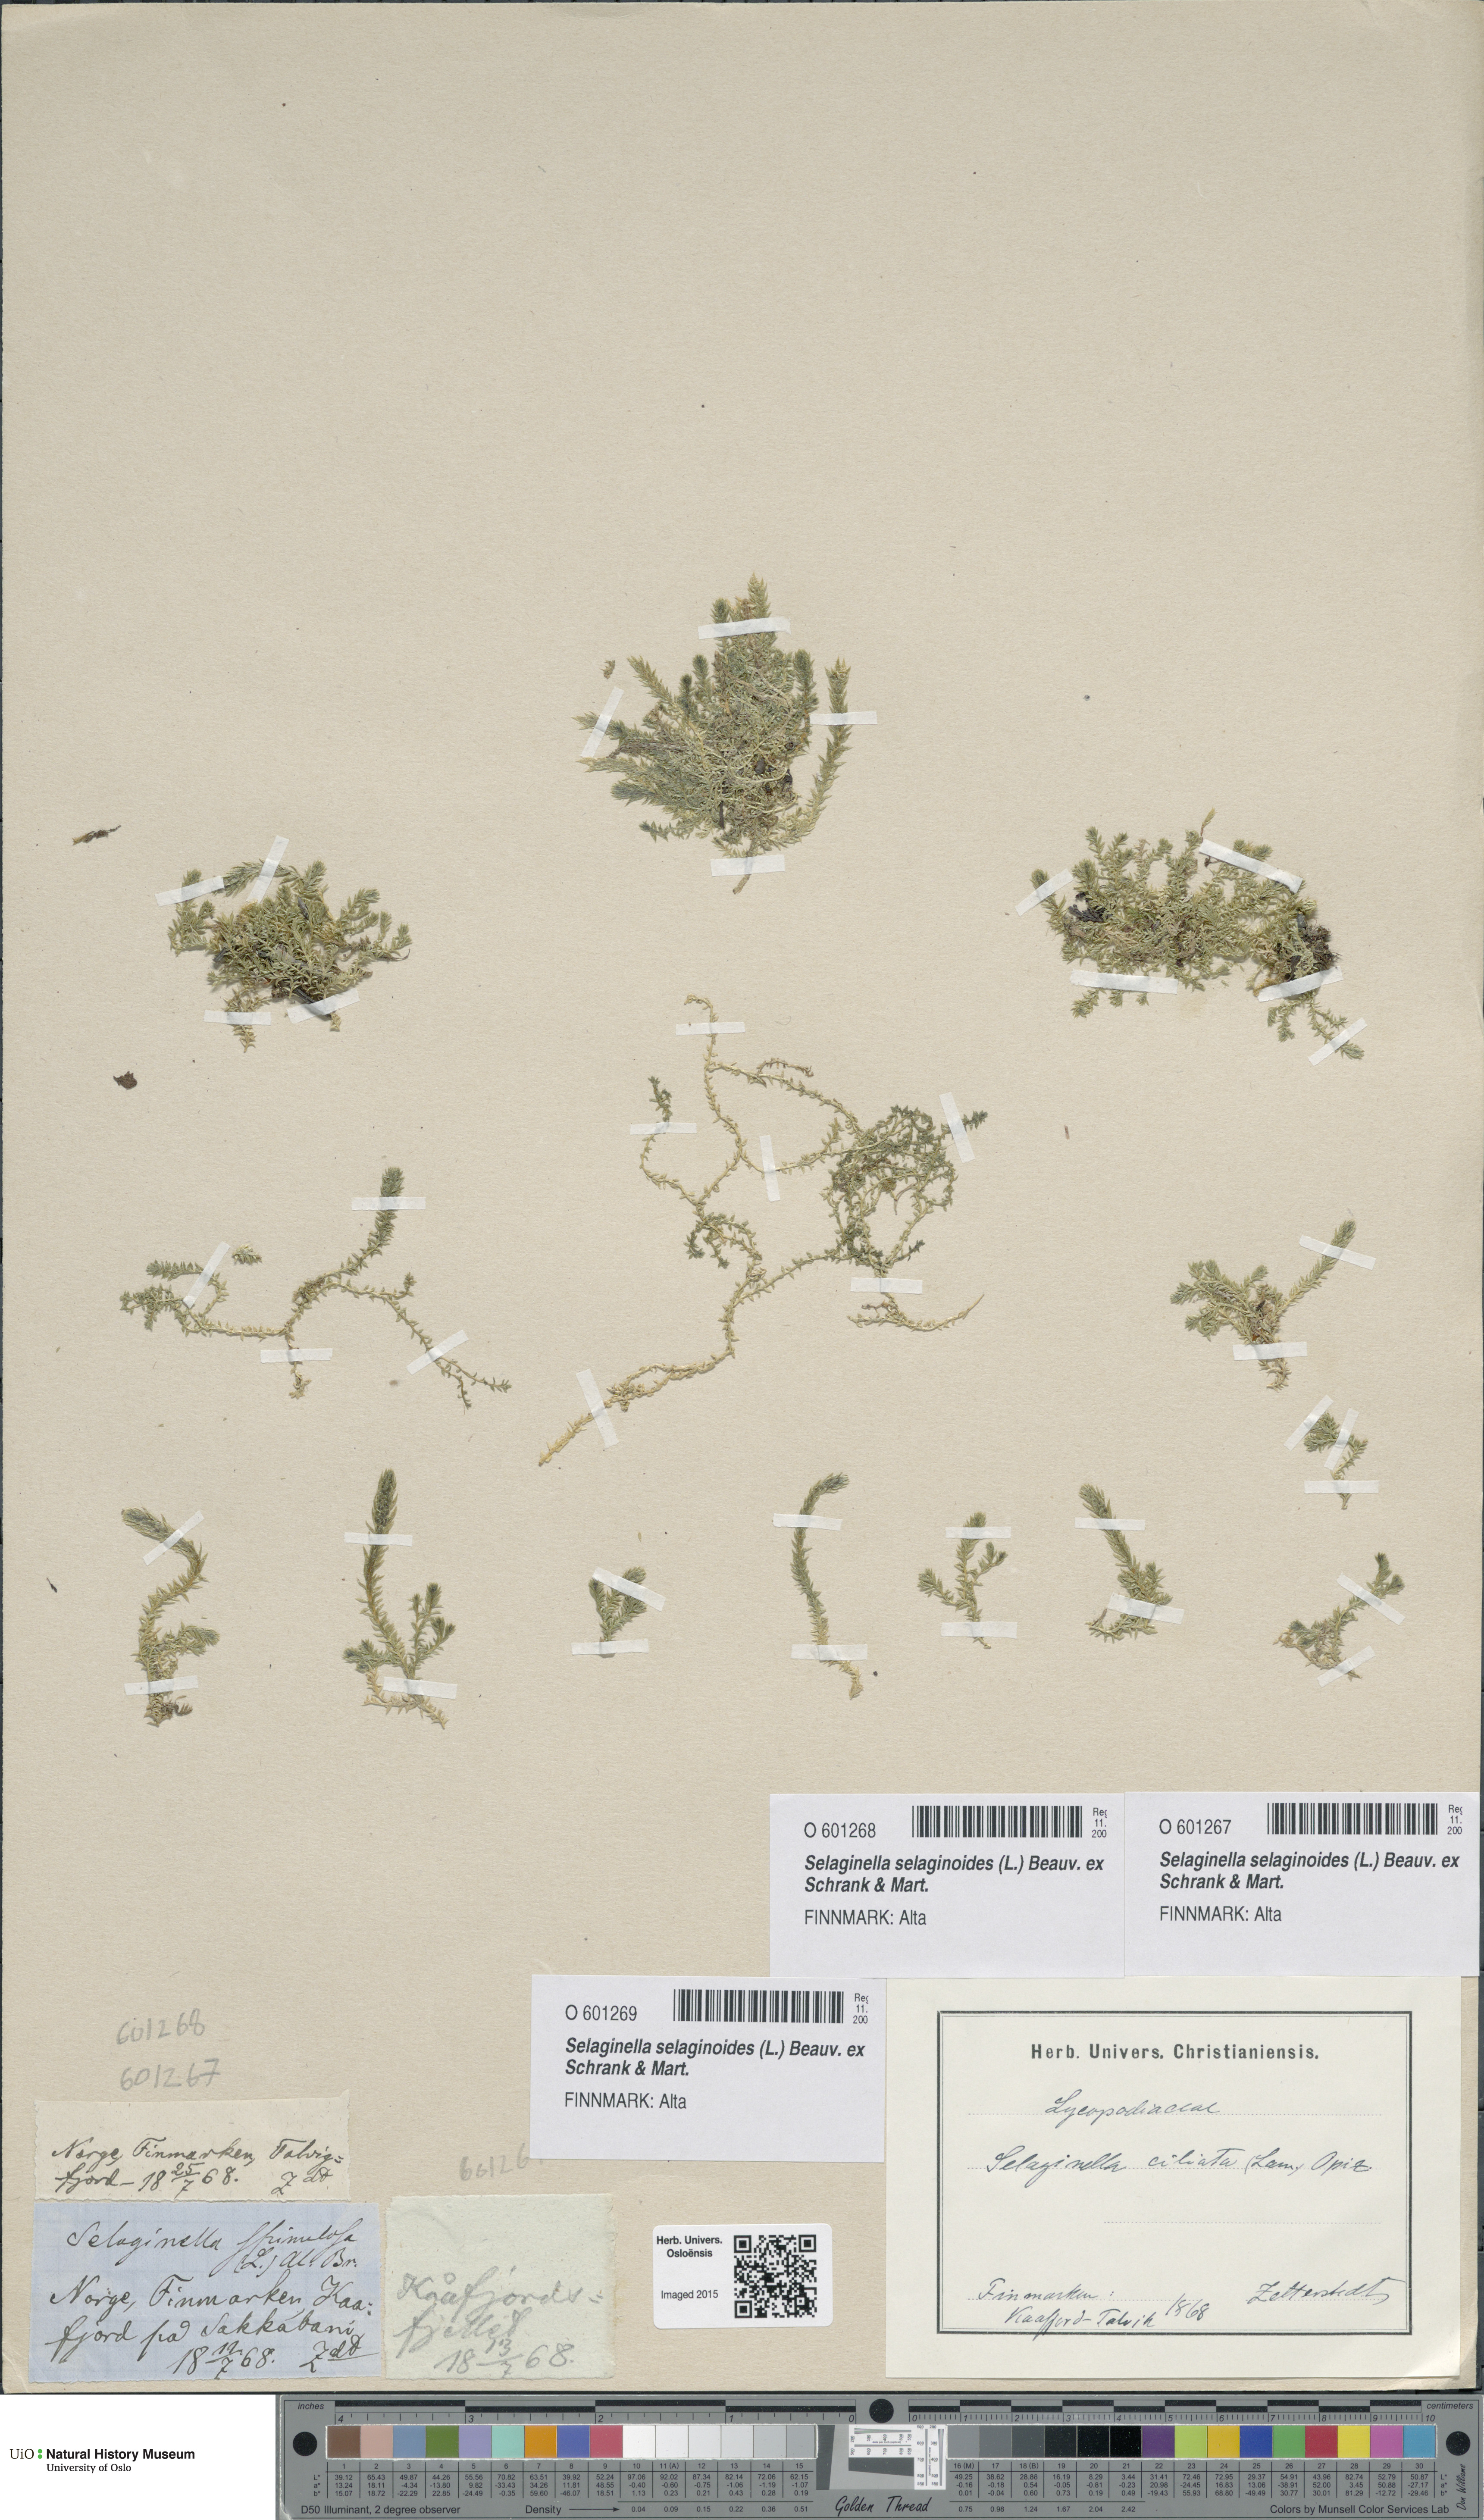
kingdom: Plantae
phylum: Tracheophyta
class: Lycopodiopsida
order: Selaginellales
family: Selaginellaceae
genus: Selaginella
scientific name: Selaginella selaginoides
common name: Prickly mountain-moss
